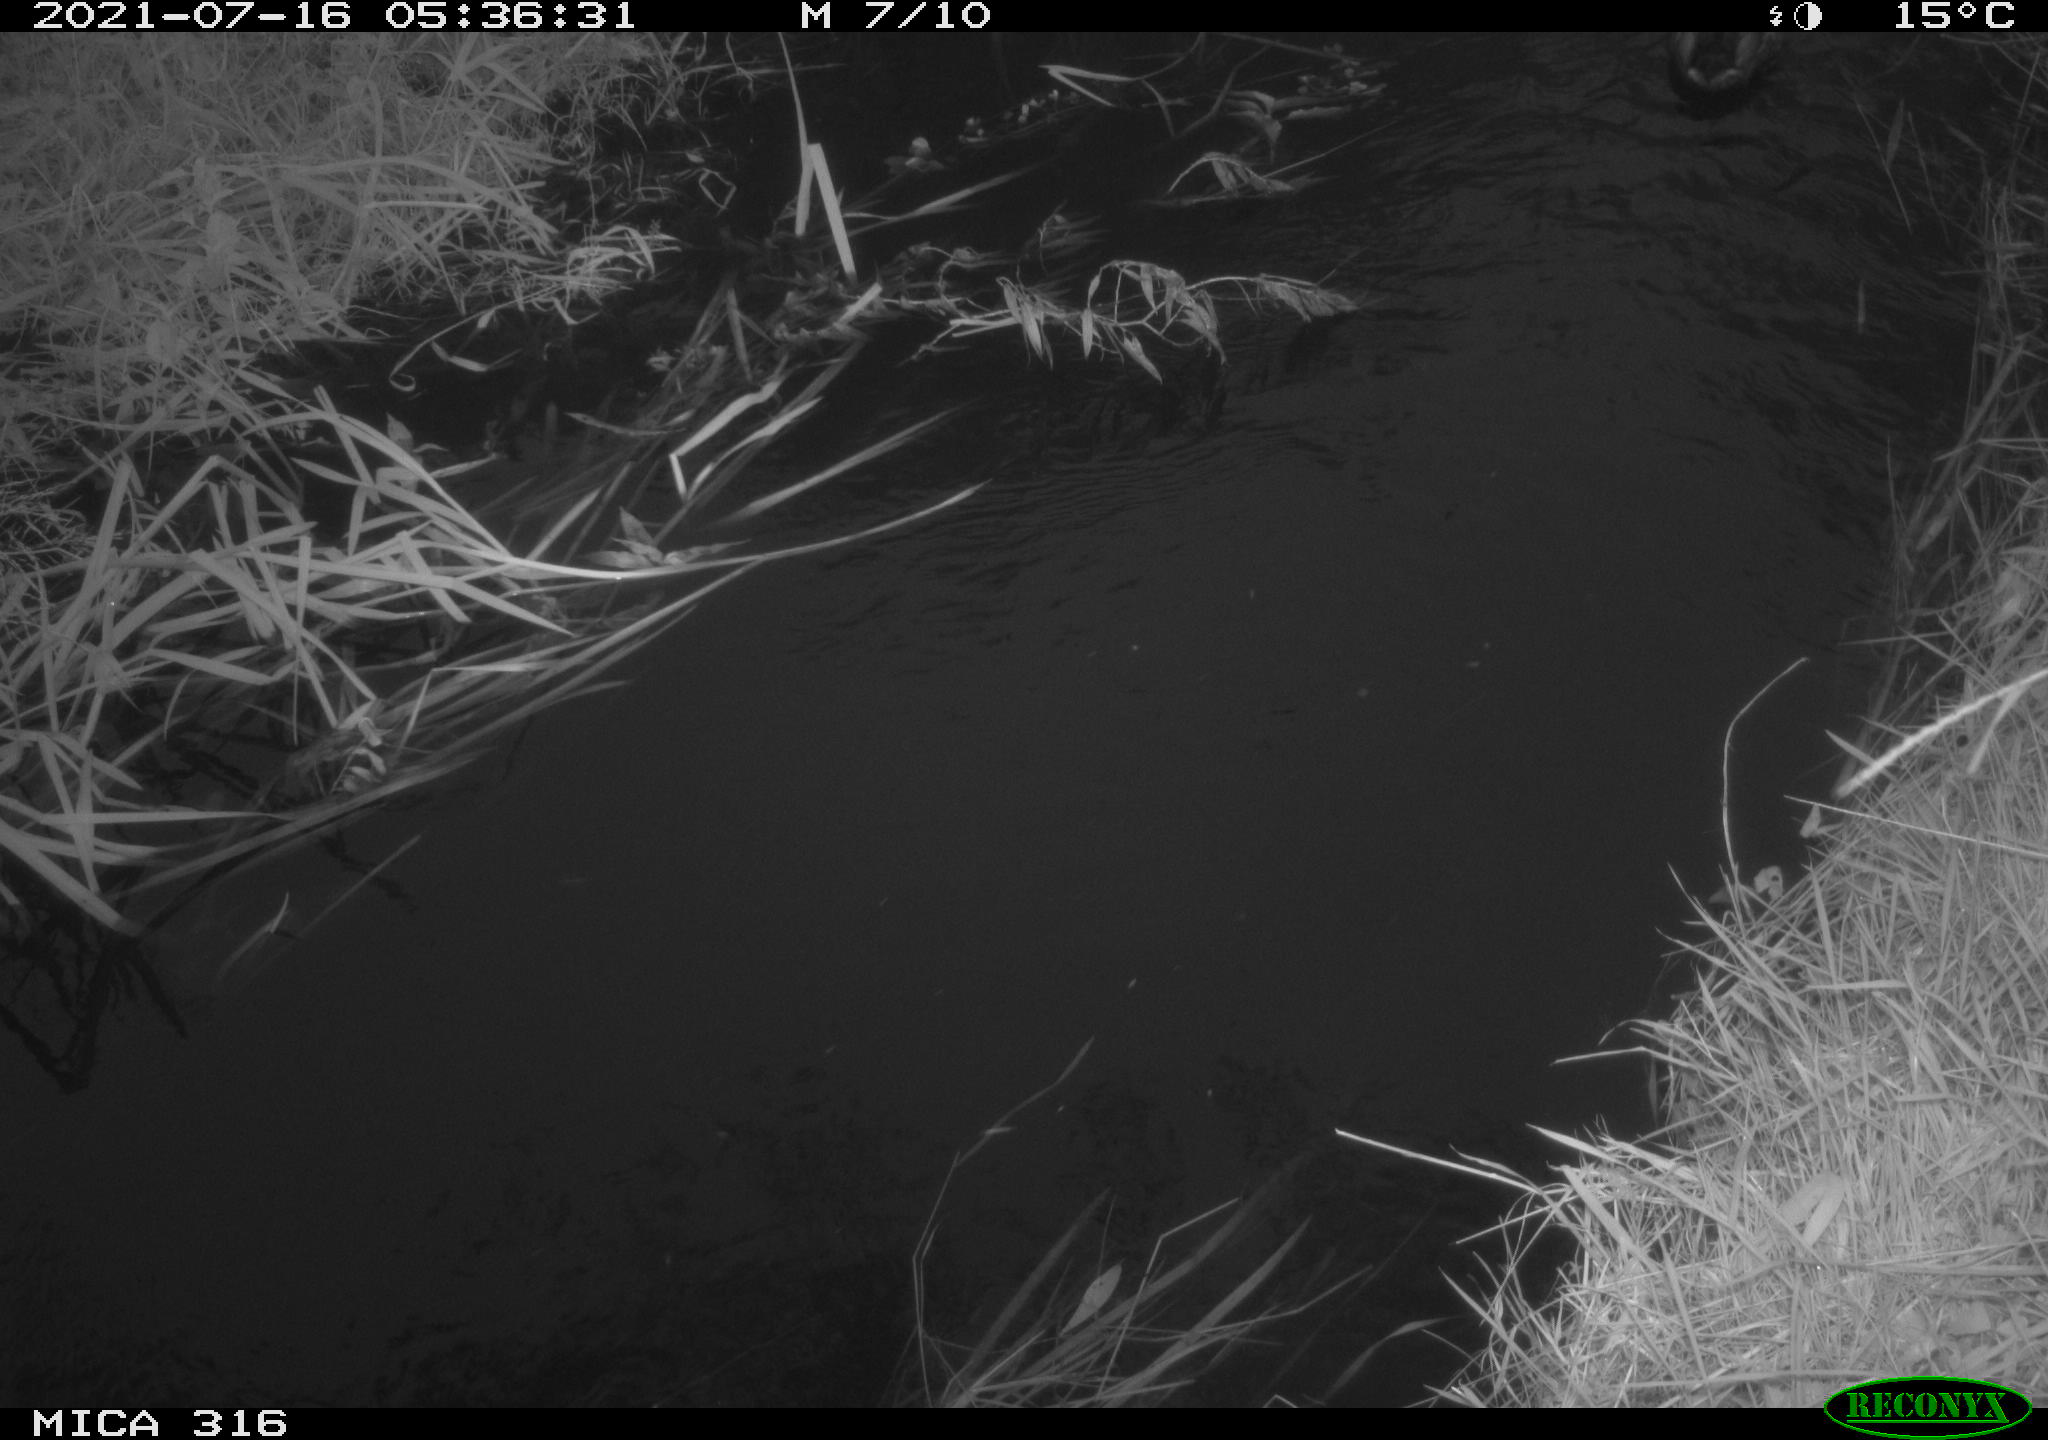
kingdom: Animalia
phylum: Chordata
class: Aves
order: Anseriformes
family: Anatidae
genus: Anas
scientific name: Anas platyrhynchos
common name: Mallard
